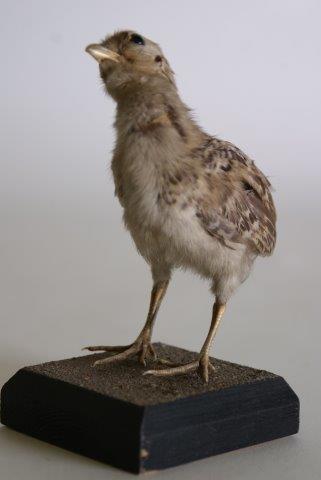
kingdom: Animalia
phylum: Chordata
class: Aves
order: Galliformes
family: Phasianidae
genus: Perdix
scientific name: Perdix perdix
